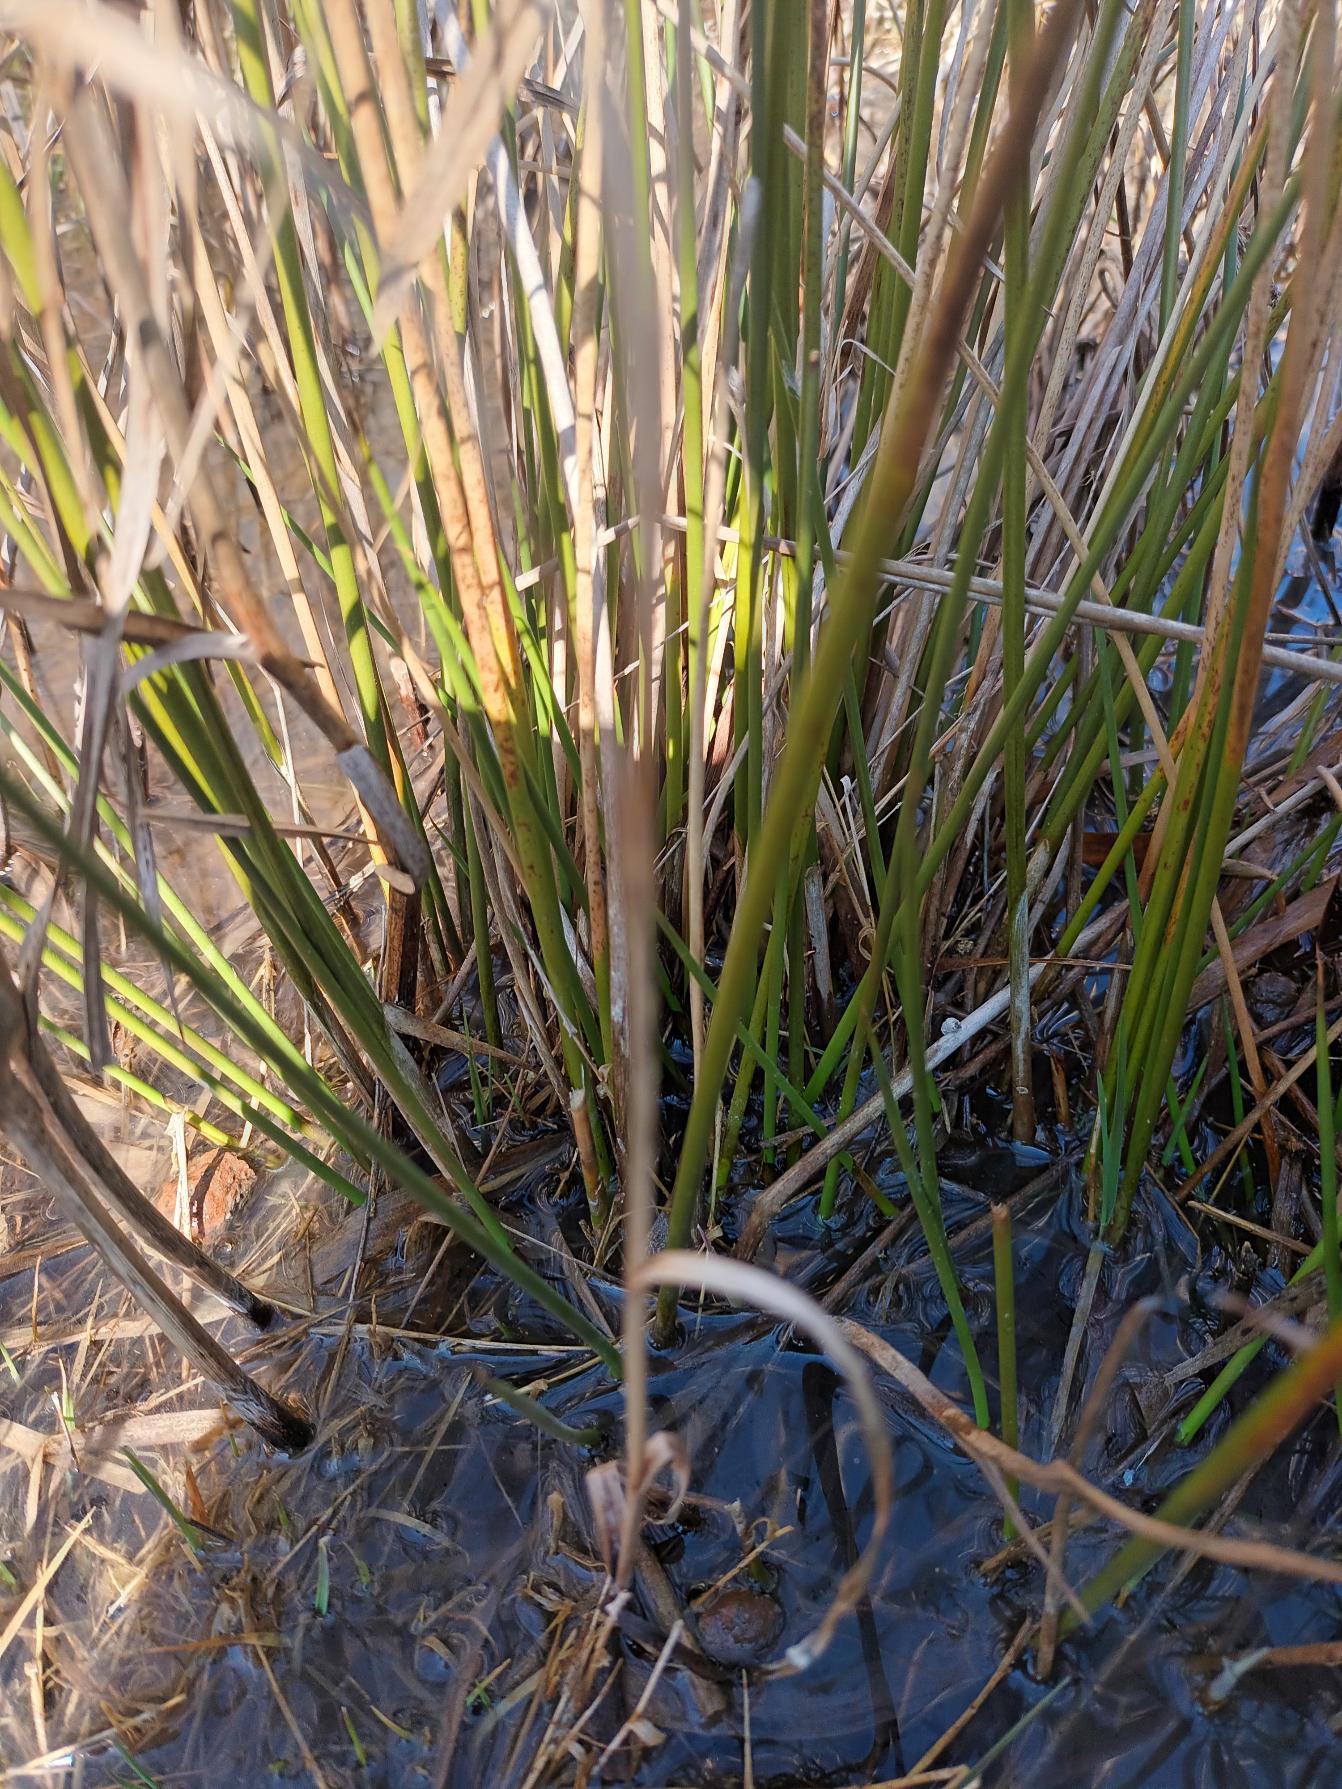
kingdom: Plantae
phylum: Tracheophyta
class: Liliopsida
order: Poales
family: Juncaceae
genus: Juncus
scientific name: Juncus effusus
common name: Lyse-siv
